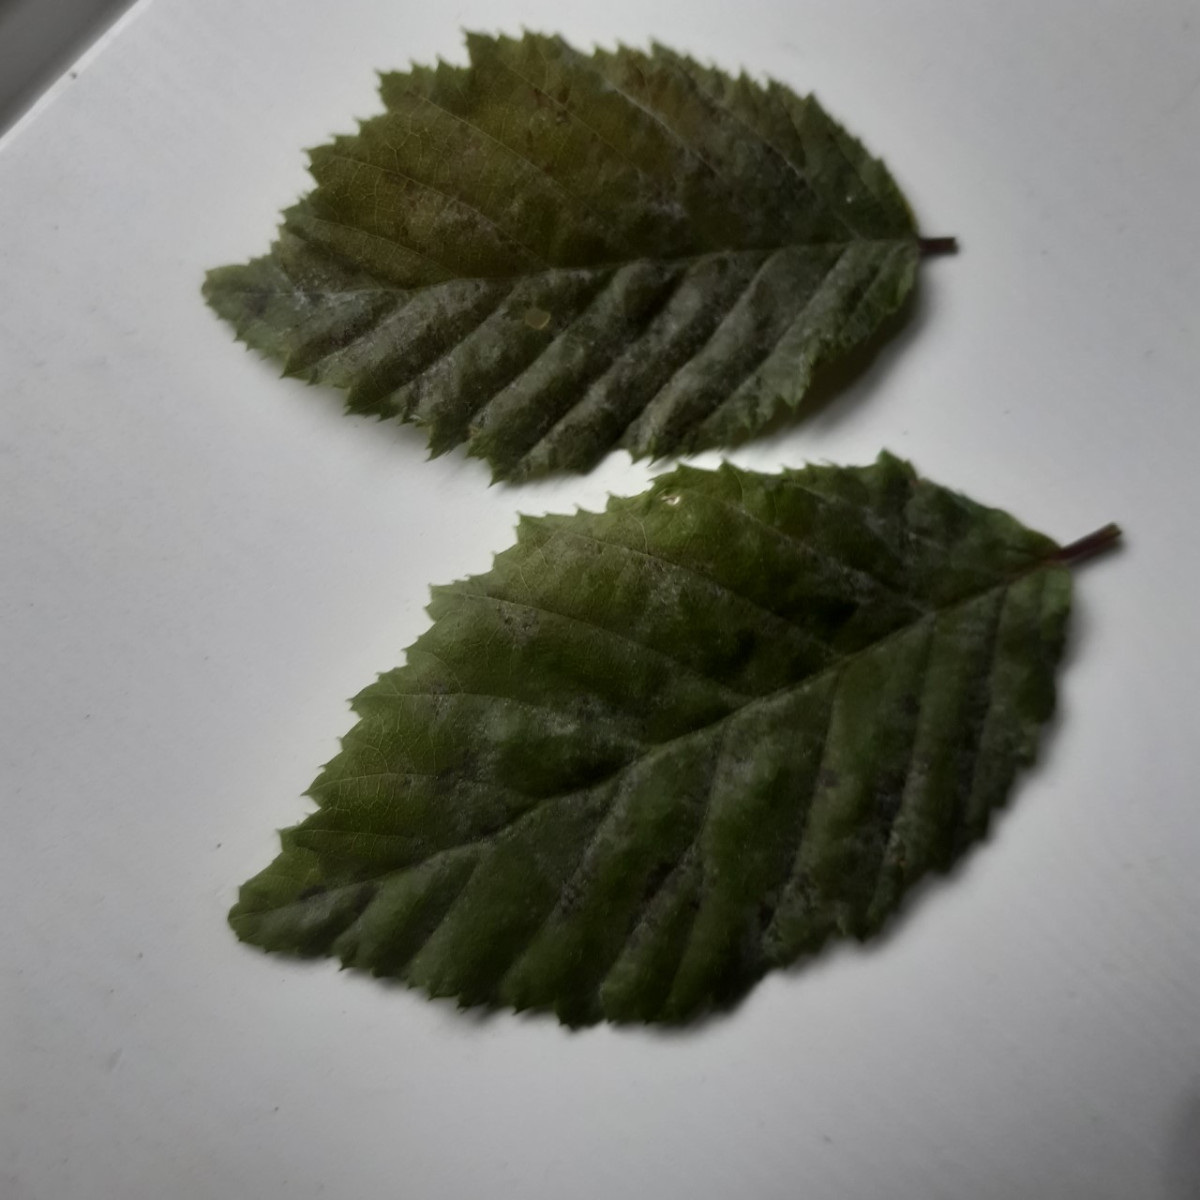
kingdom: Fungi
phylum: Ascomycota
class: Leotiomycetes
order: Helotiales
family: Erysiphaceae
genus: Erysiphe
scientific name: Erysiphe arcuata
